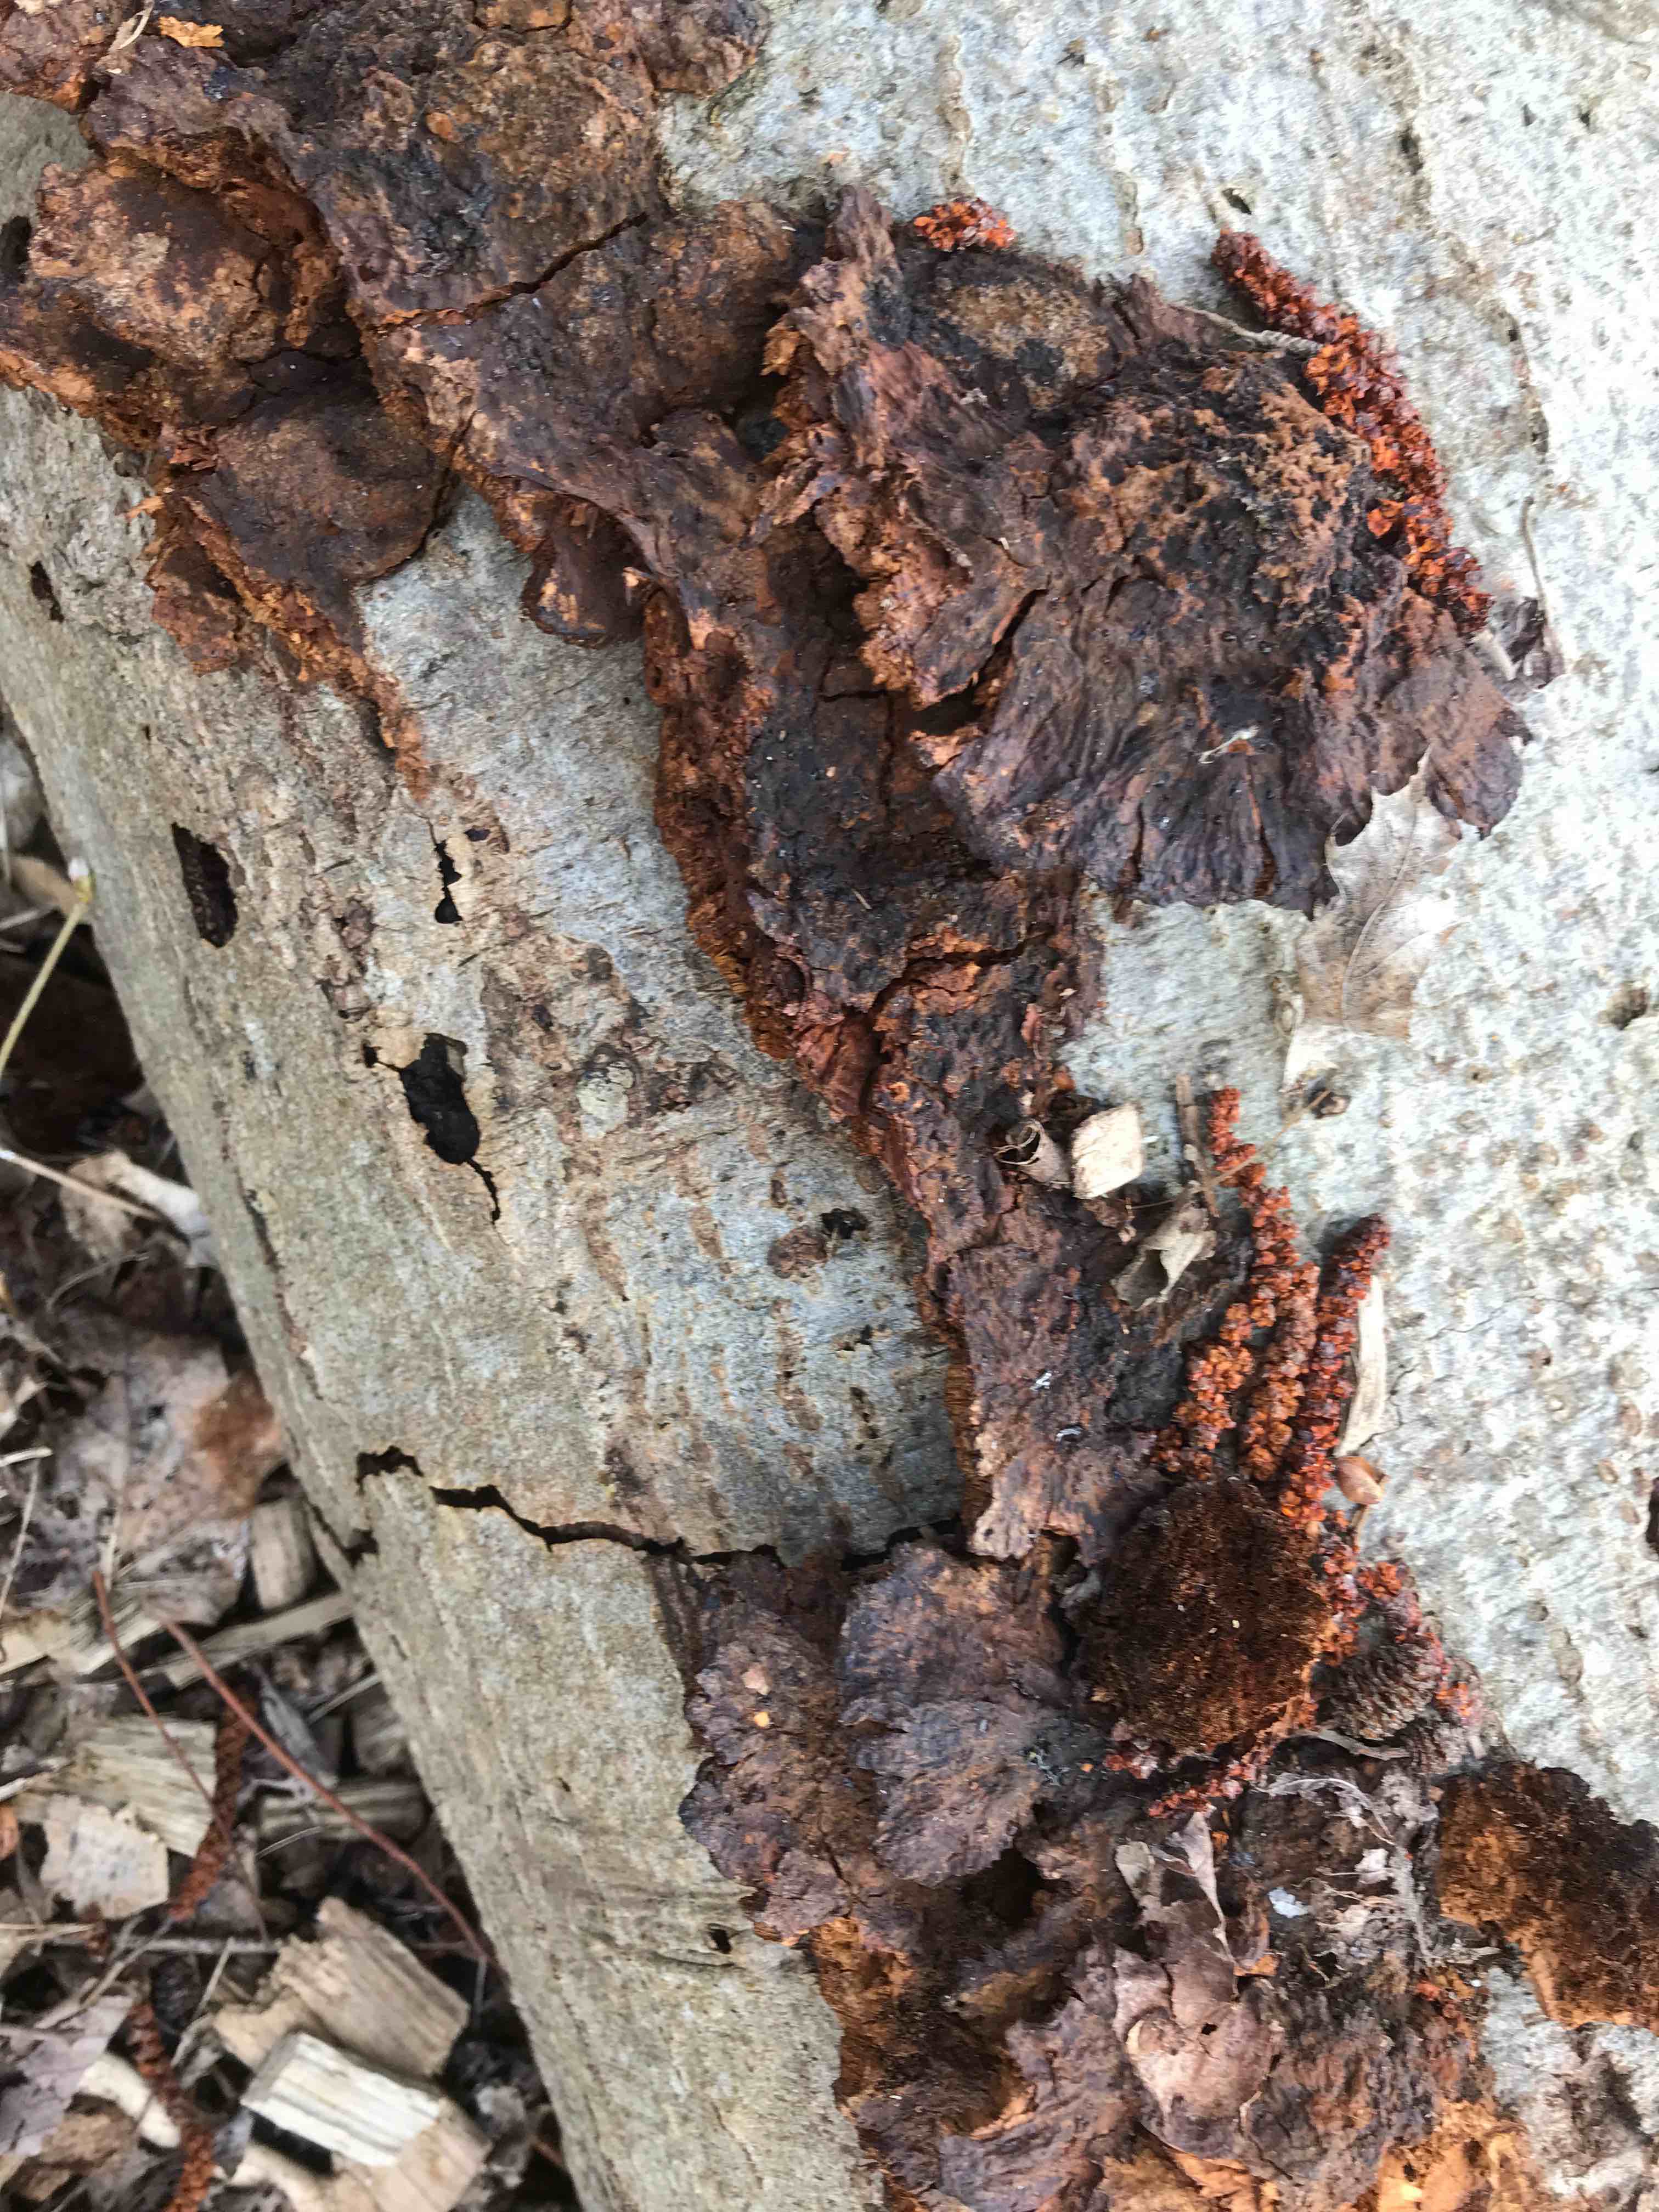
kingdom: Fungi
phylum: Basidiomycota
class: Agaricomycetes
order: Hymenochaetales
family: Hymenochaetaceae
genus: Xanthoporia
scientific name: Xanthoporia radiata
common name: elle-spejlporesvamp
